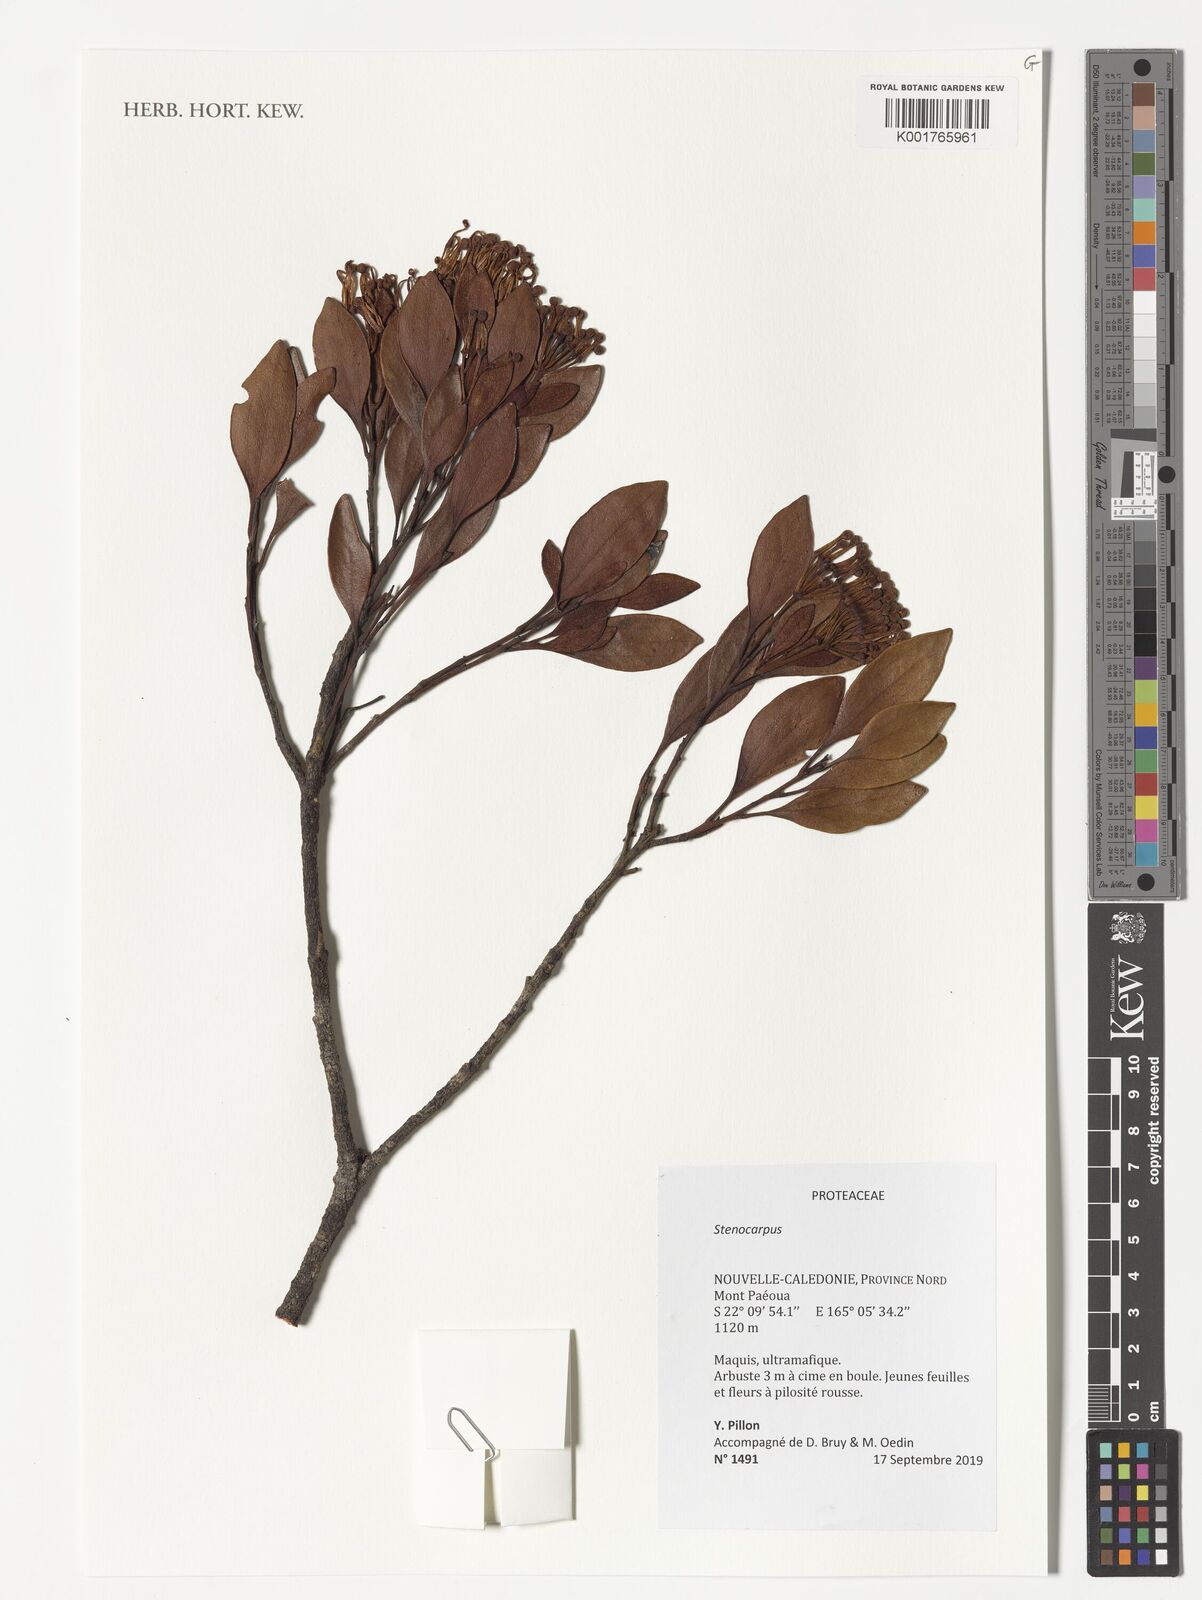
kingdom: Plantae
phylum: Tracheophyta
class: Magnoliopsida
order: Proteales
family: Proteaceae
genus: Stenocarpus
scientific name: Stenocarpus
